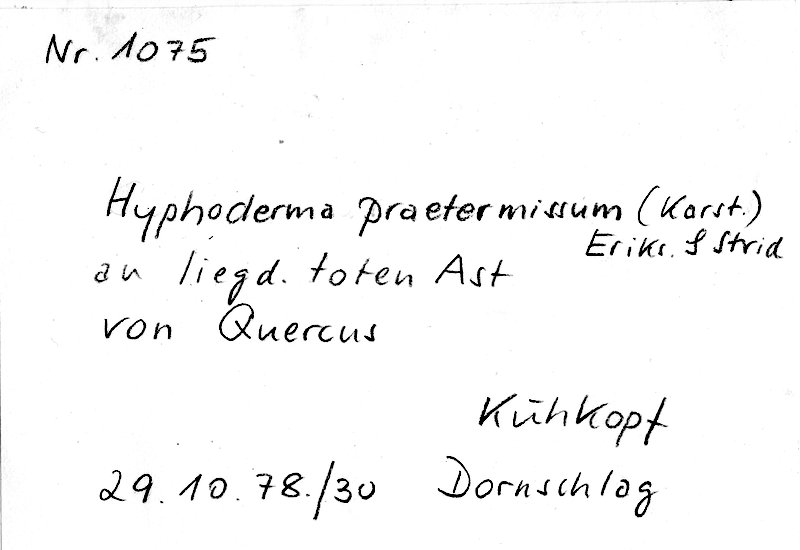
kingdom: Fungi
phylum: Basidiomycota
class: Agaricomycetes
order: Hymenochaetales
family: Rickenellaceae
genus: Peniophorella
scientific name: Peniophorella praetermissa
